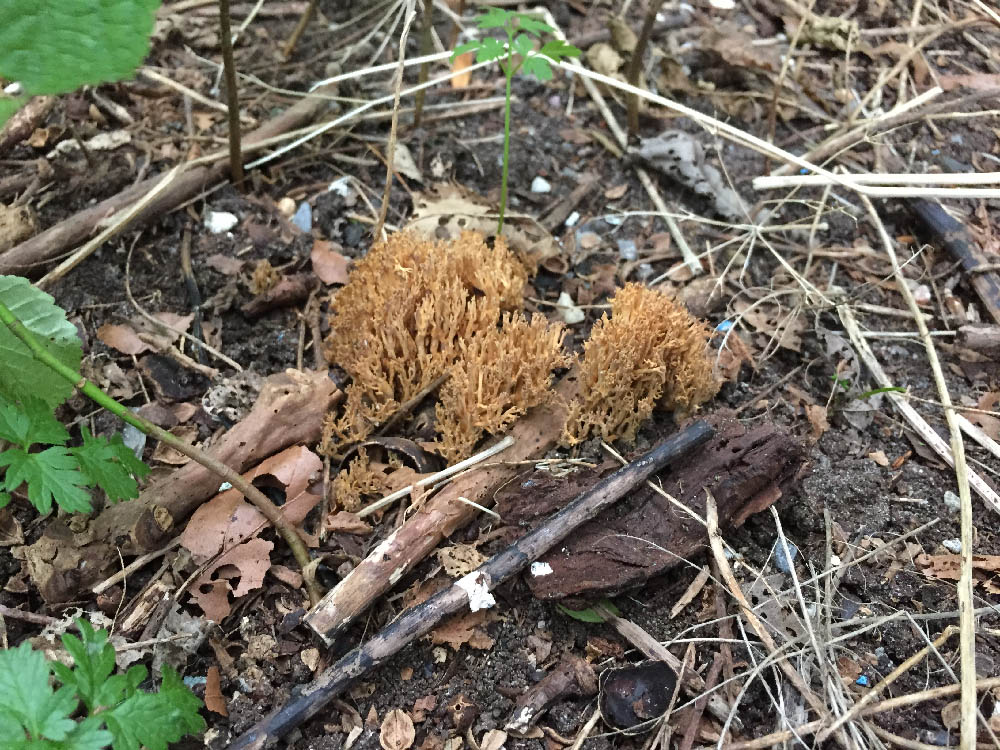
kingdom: Fungi
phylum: Basidiomycota
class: Agaricomycetes
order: Gomphales
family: Gomphaceae
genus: Ramaria
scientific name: Ramaria stricta
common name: rank koralsvamp
